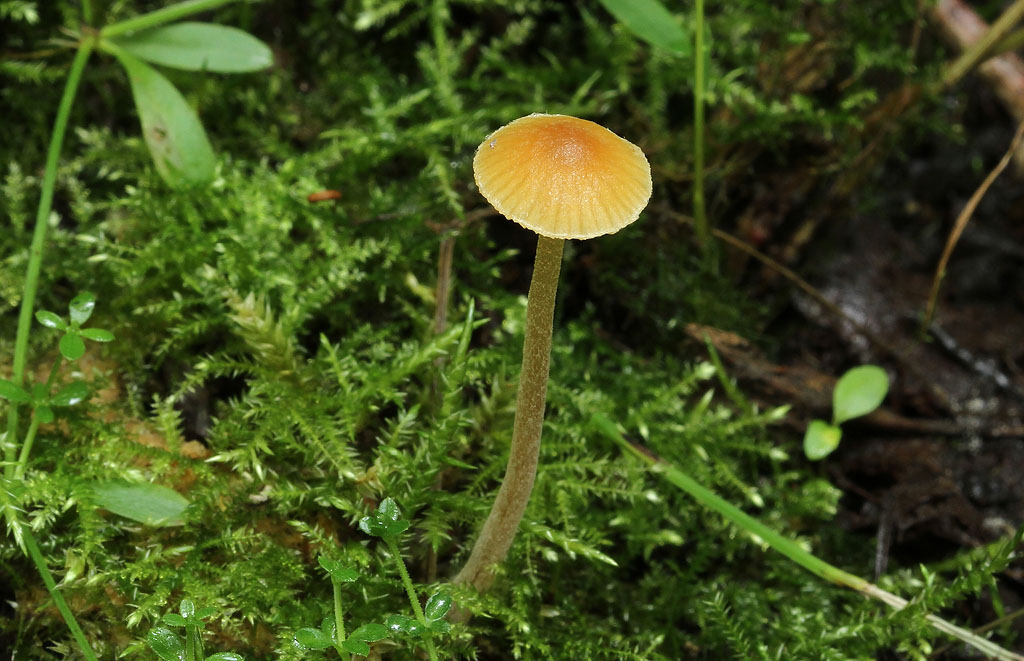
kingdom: Fungi
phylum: Basidiomycota
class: Agaricomycetes
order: Agaricales
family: Hymenogastraceae
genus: Galerina
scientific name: Galerina clavata
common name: kær-hjelmhat
